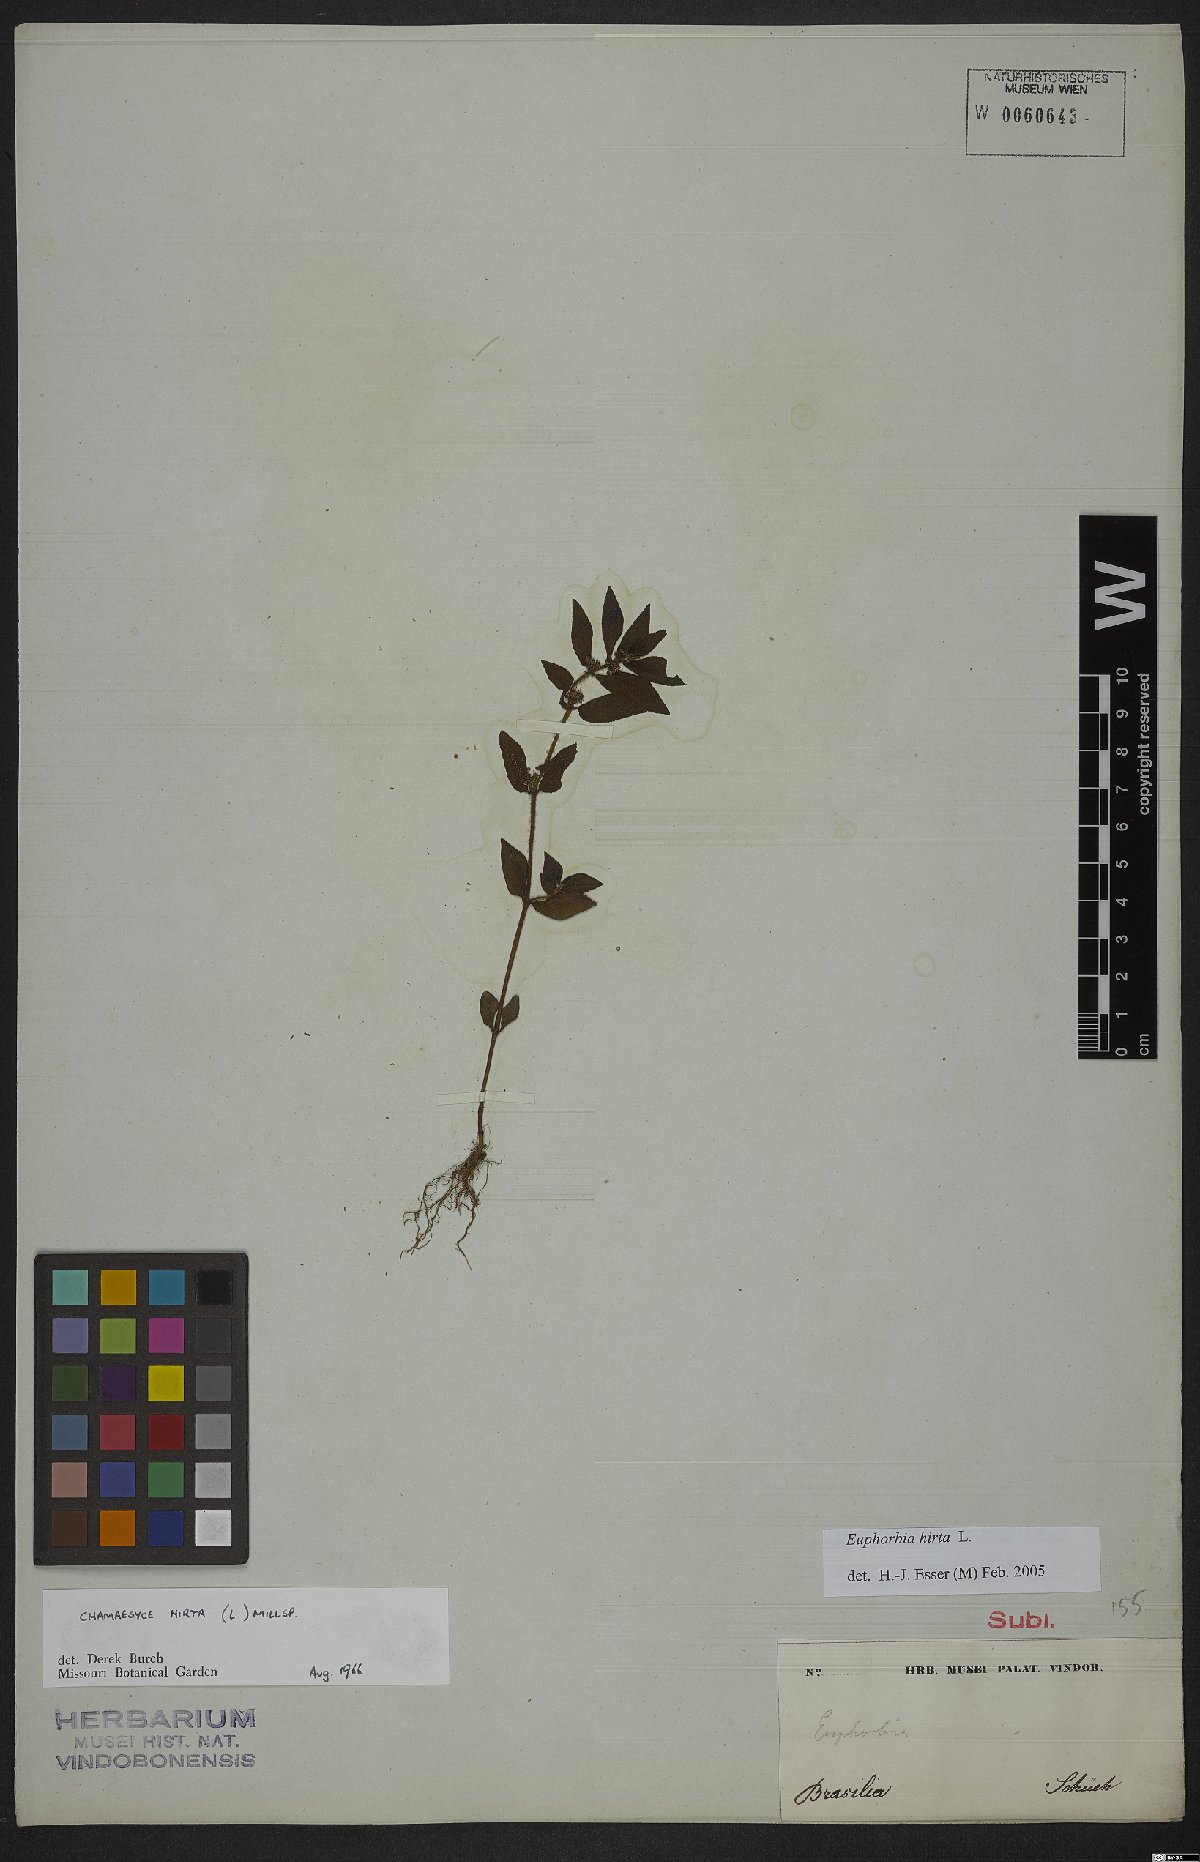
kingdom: Plantae
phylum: Tracheophyta
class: Magnoliopsida
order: Malpighiales
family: Euphorbiaceae
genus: Euphorbia
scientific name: Euphorbia hirta
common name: Pillpod sandmat
